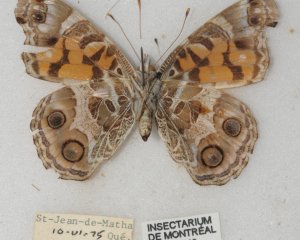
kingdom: Animalia
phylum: Arthropoda
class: Insecta
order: Lepidoptera
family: Nymphalidae
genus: Vanessa
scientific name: Vanessa virginiensis
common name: American Lady
